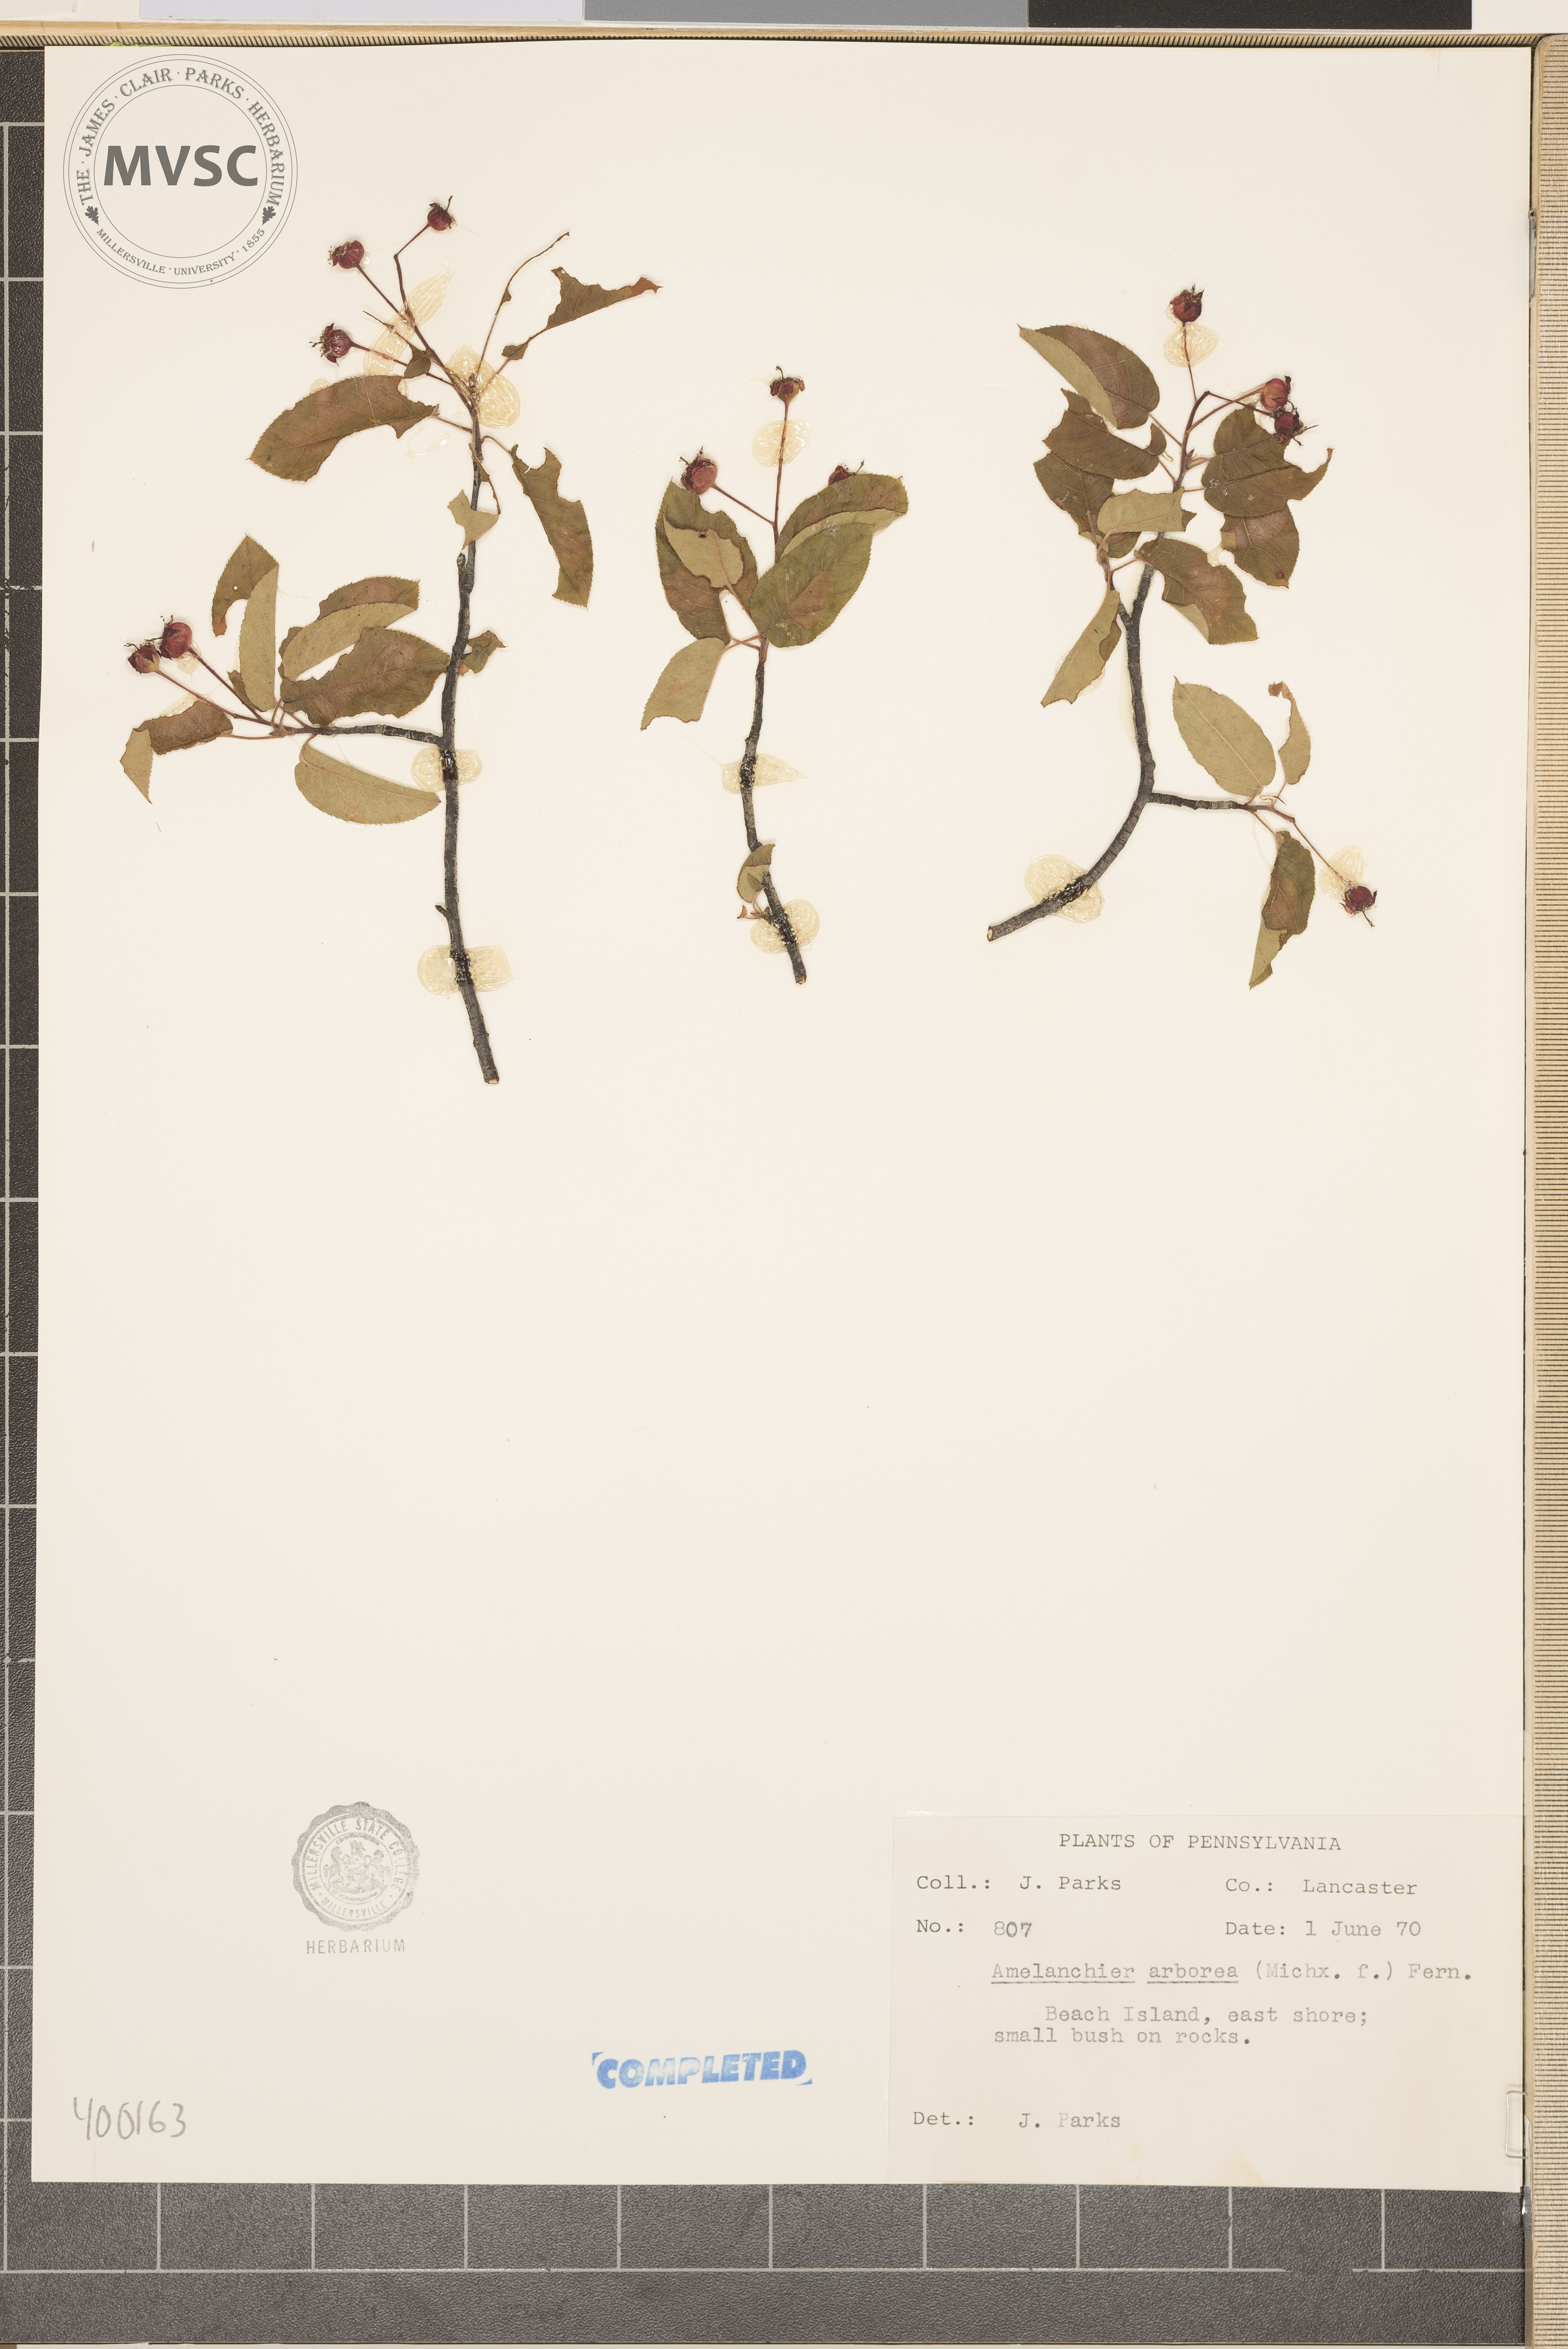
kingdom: Plantae
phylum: Tracheophyta
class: Magnoliopsida
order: Rosales
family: Rosaceae
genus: Amelanchier
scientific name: Amelanchier arborea
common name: serviceberry
